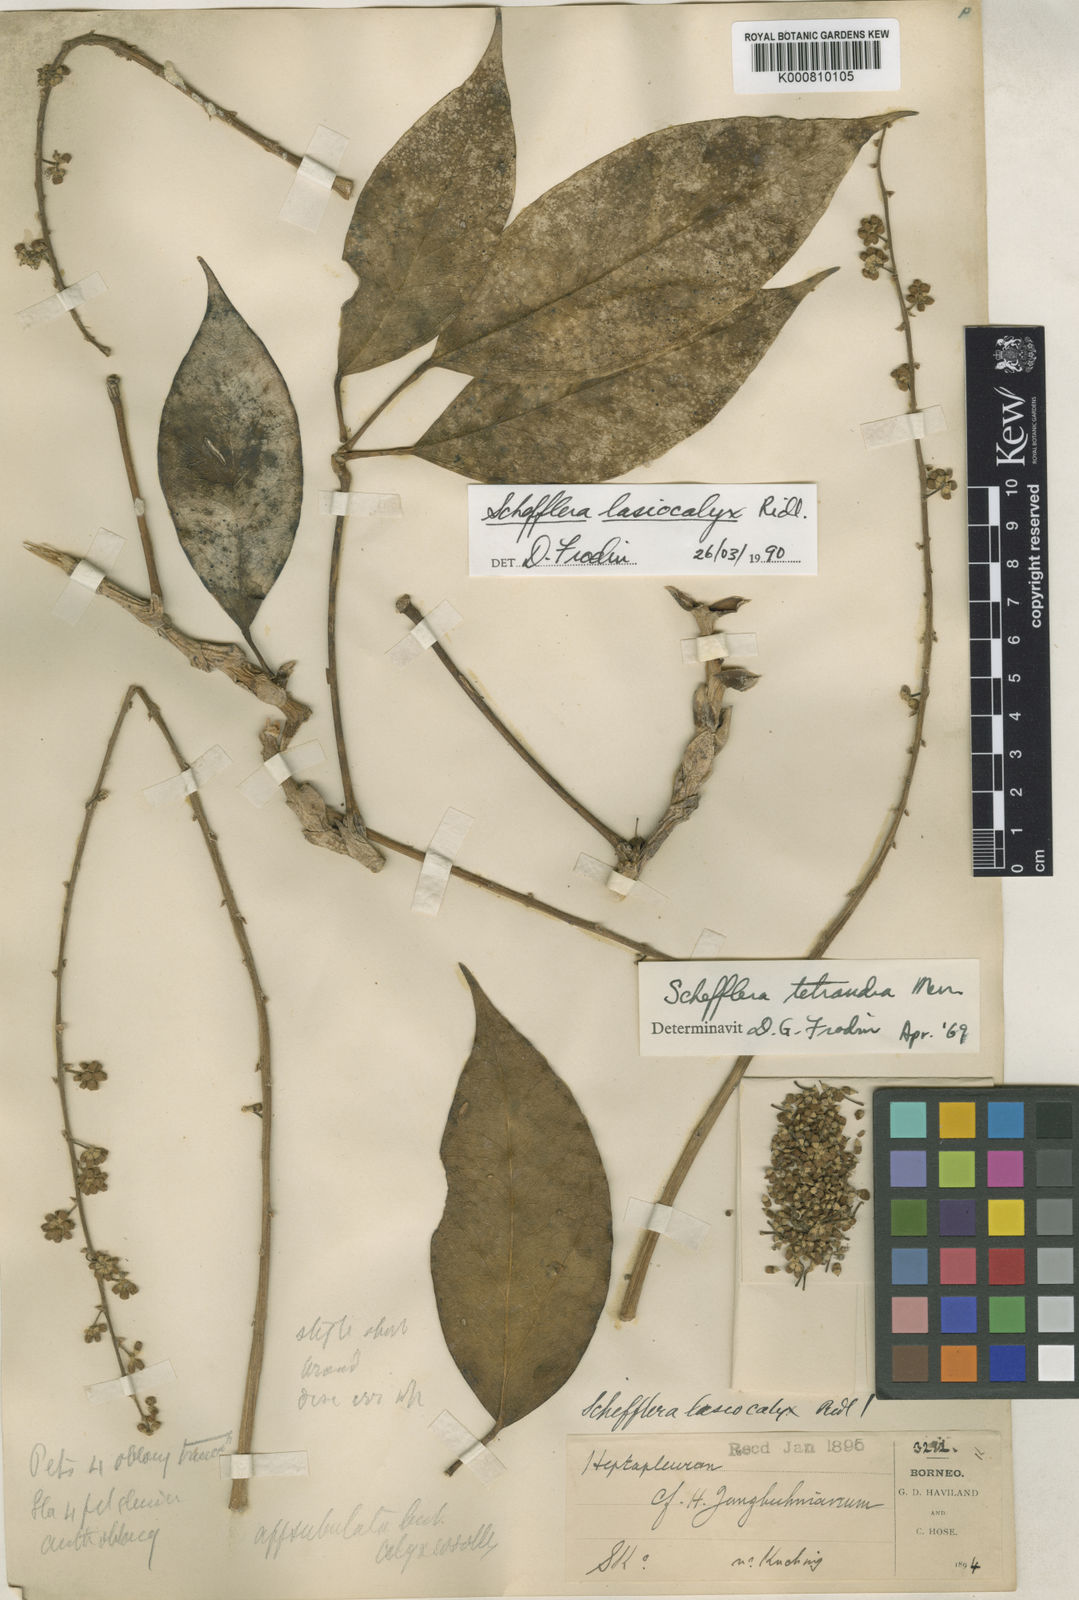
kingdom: Plantae
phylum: Tracheophyta
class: Magnoliopsida
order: Apiales
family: Araliaceae
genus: Heptapleurum
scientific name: Heptapleurum lasiocalyx
